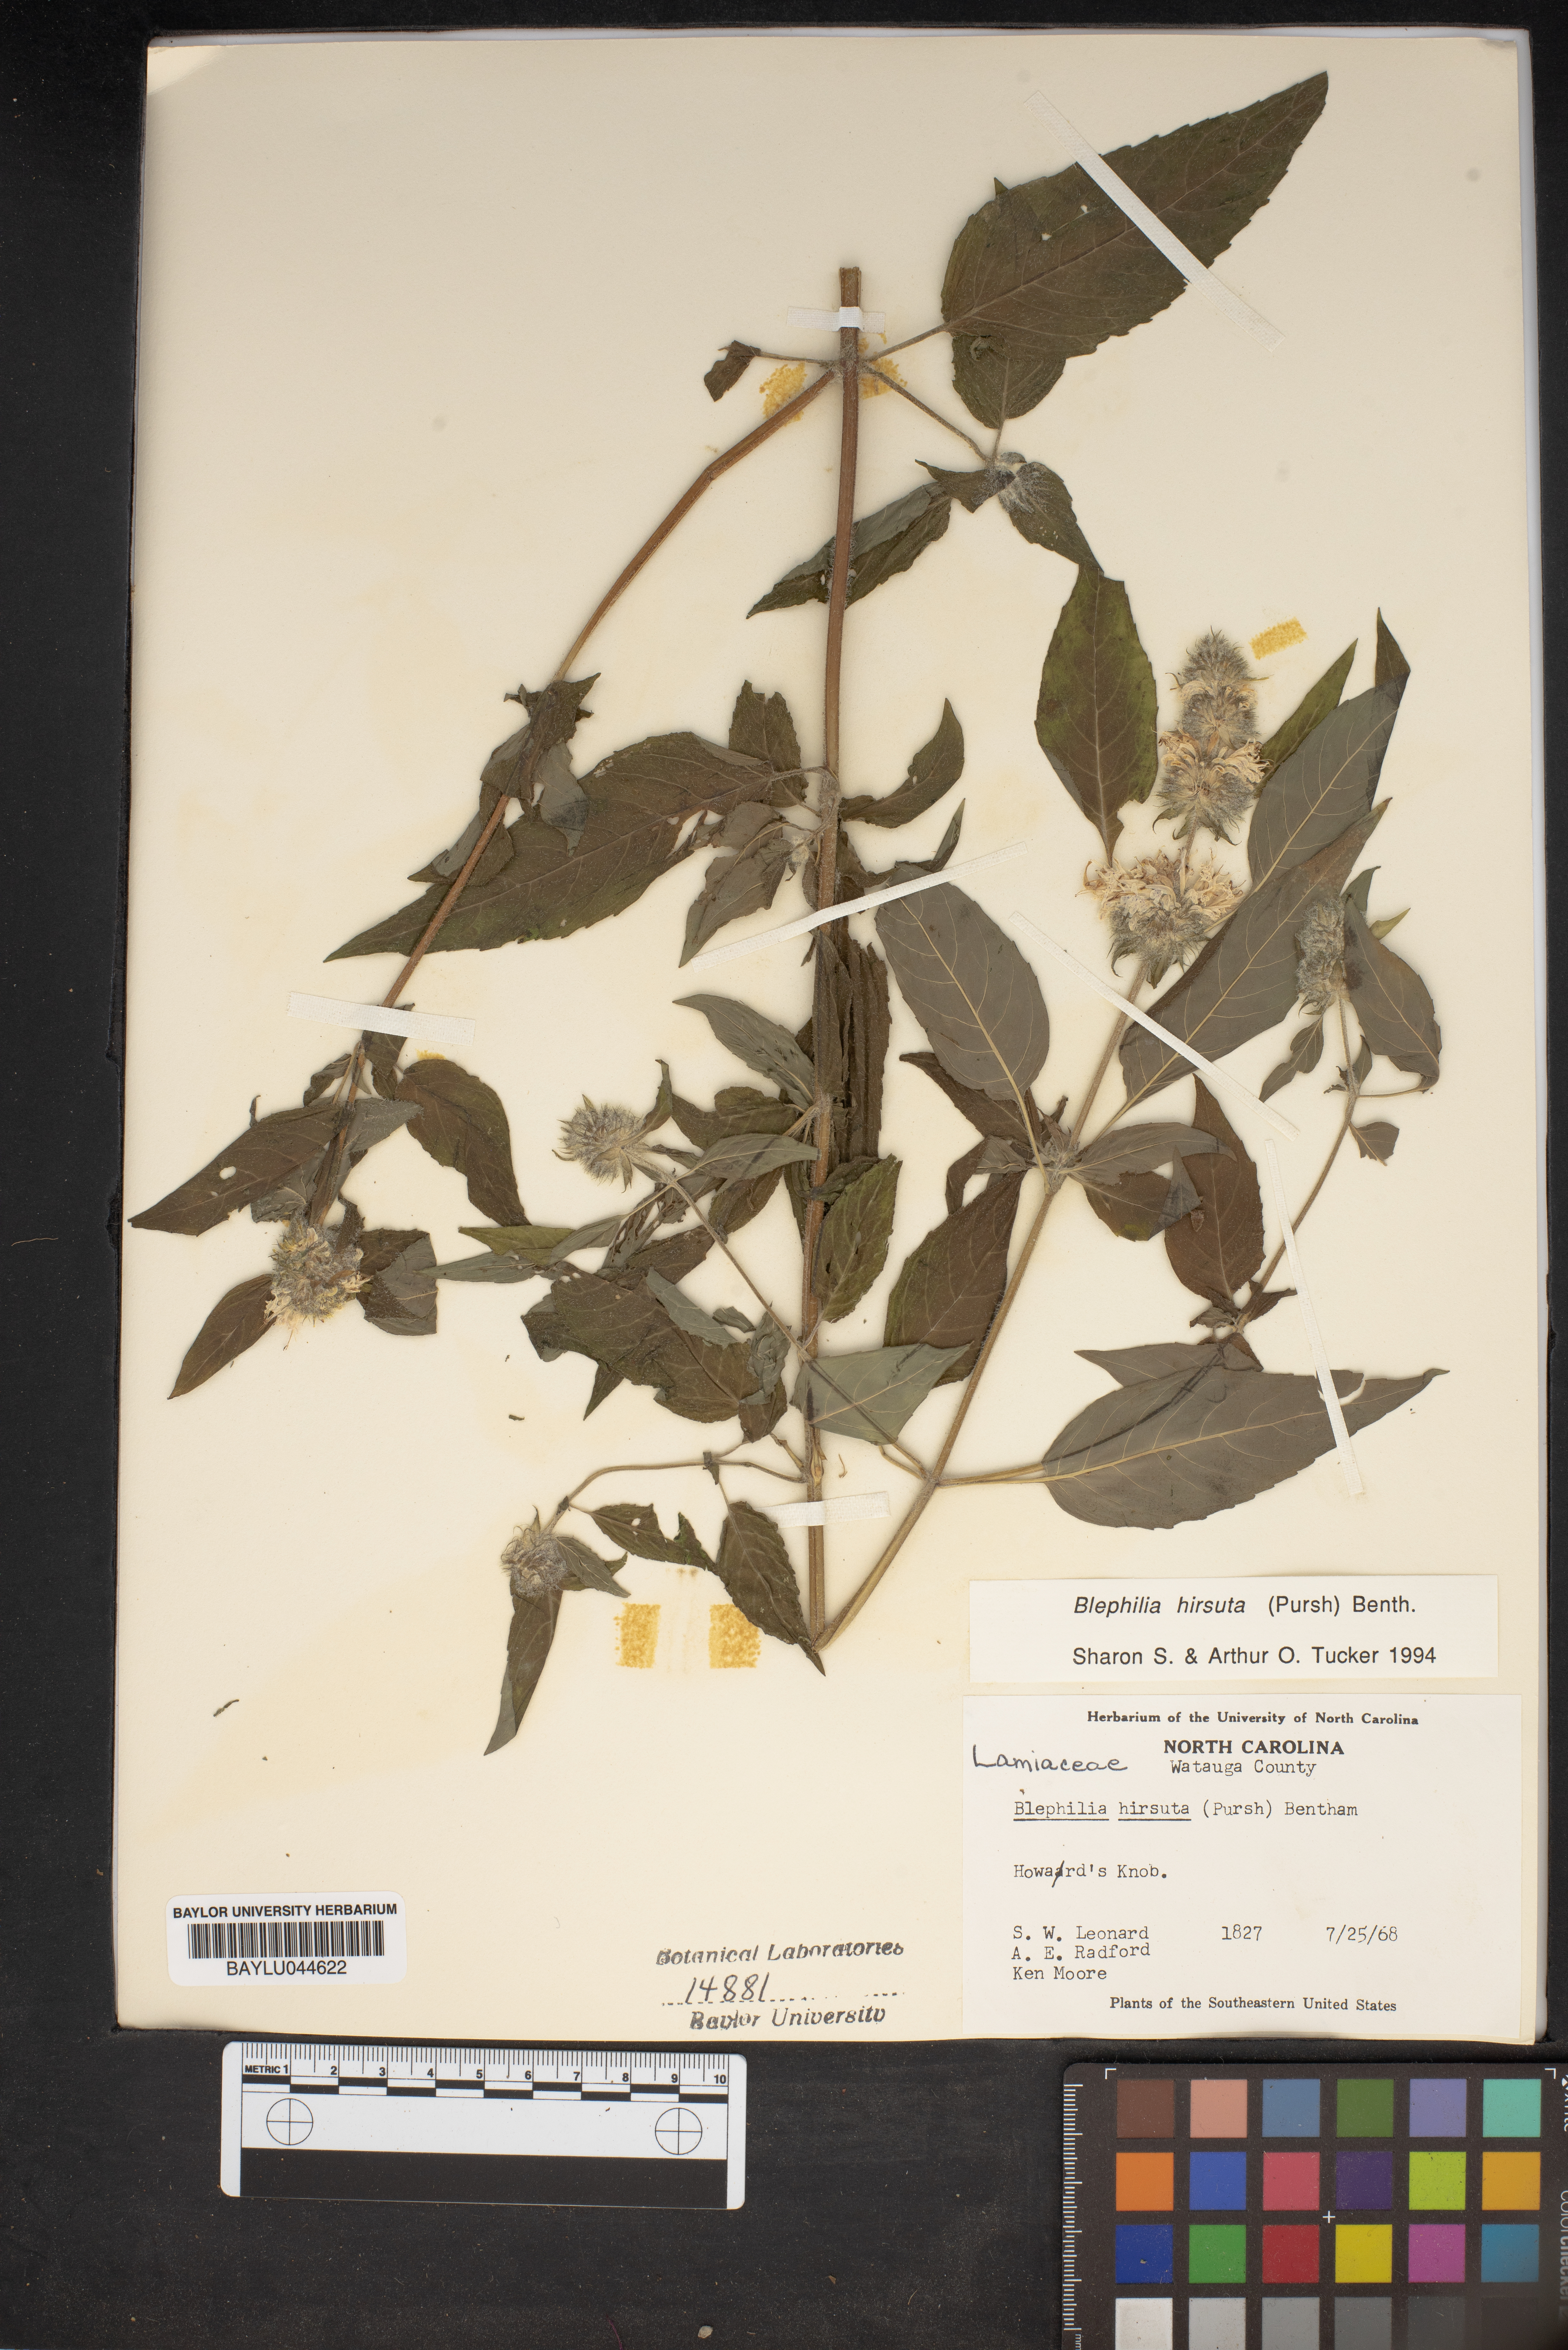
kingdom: Plantae
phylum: Tracheophyta
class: Magnoliopsida
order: Lamiales
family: Lamiaceae
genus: Blephilia
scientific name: Blephilia hirsuta
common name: Hairy blephilia
